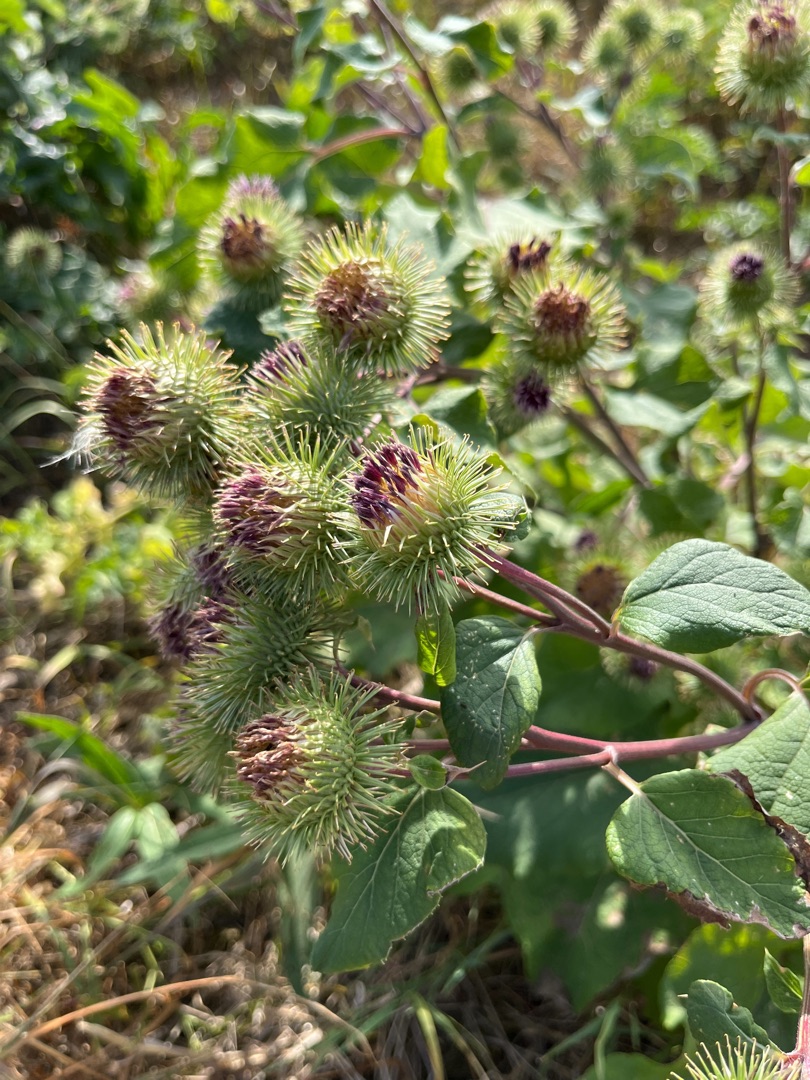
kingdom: Plantae
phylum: Tracheophyta
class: Magnoliopsida
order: Asterales
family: Asteraceae
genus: Arctium
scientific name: Arctium lappa
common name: Glat burre
